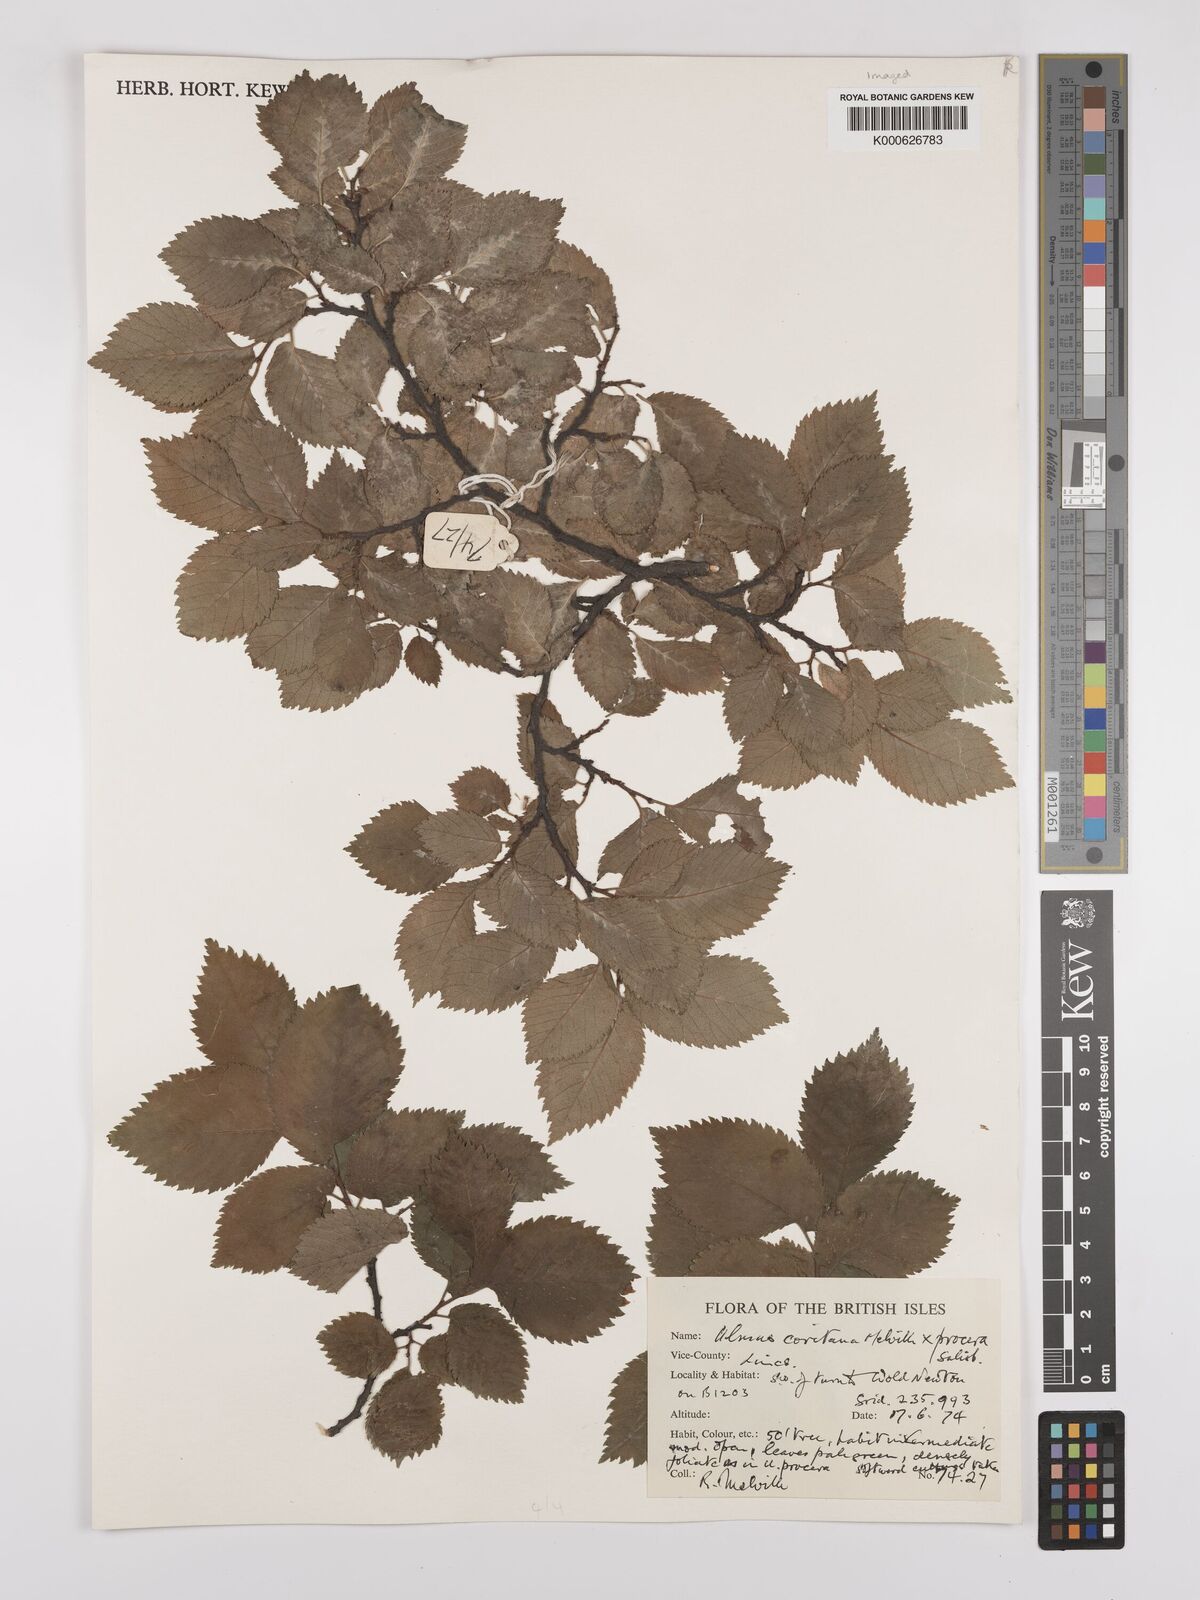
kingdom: Plantae
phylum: Tracheophyta
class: Magnoliopsida
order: Rosales
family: Ulmaceae
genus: Ulmus
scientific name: Ulmus
